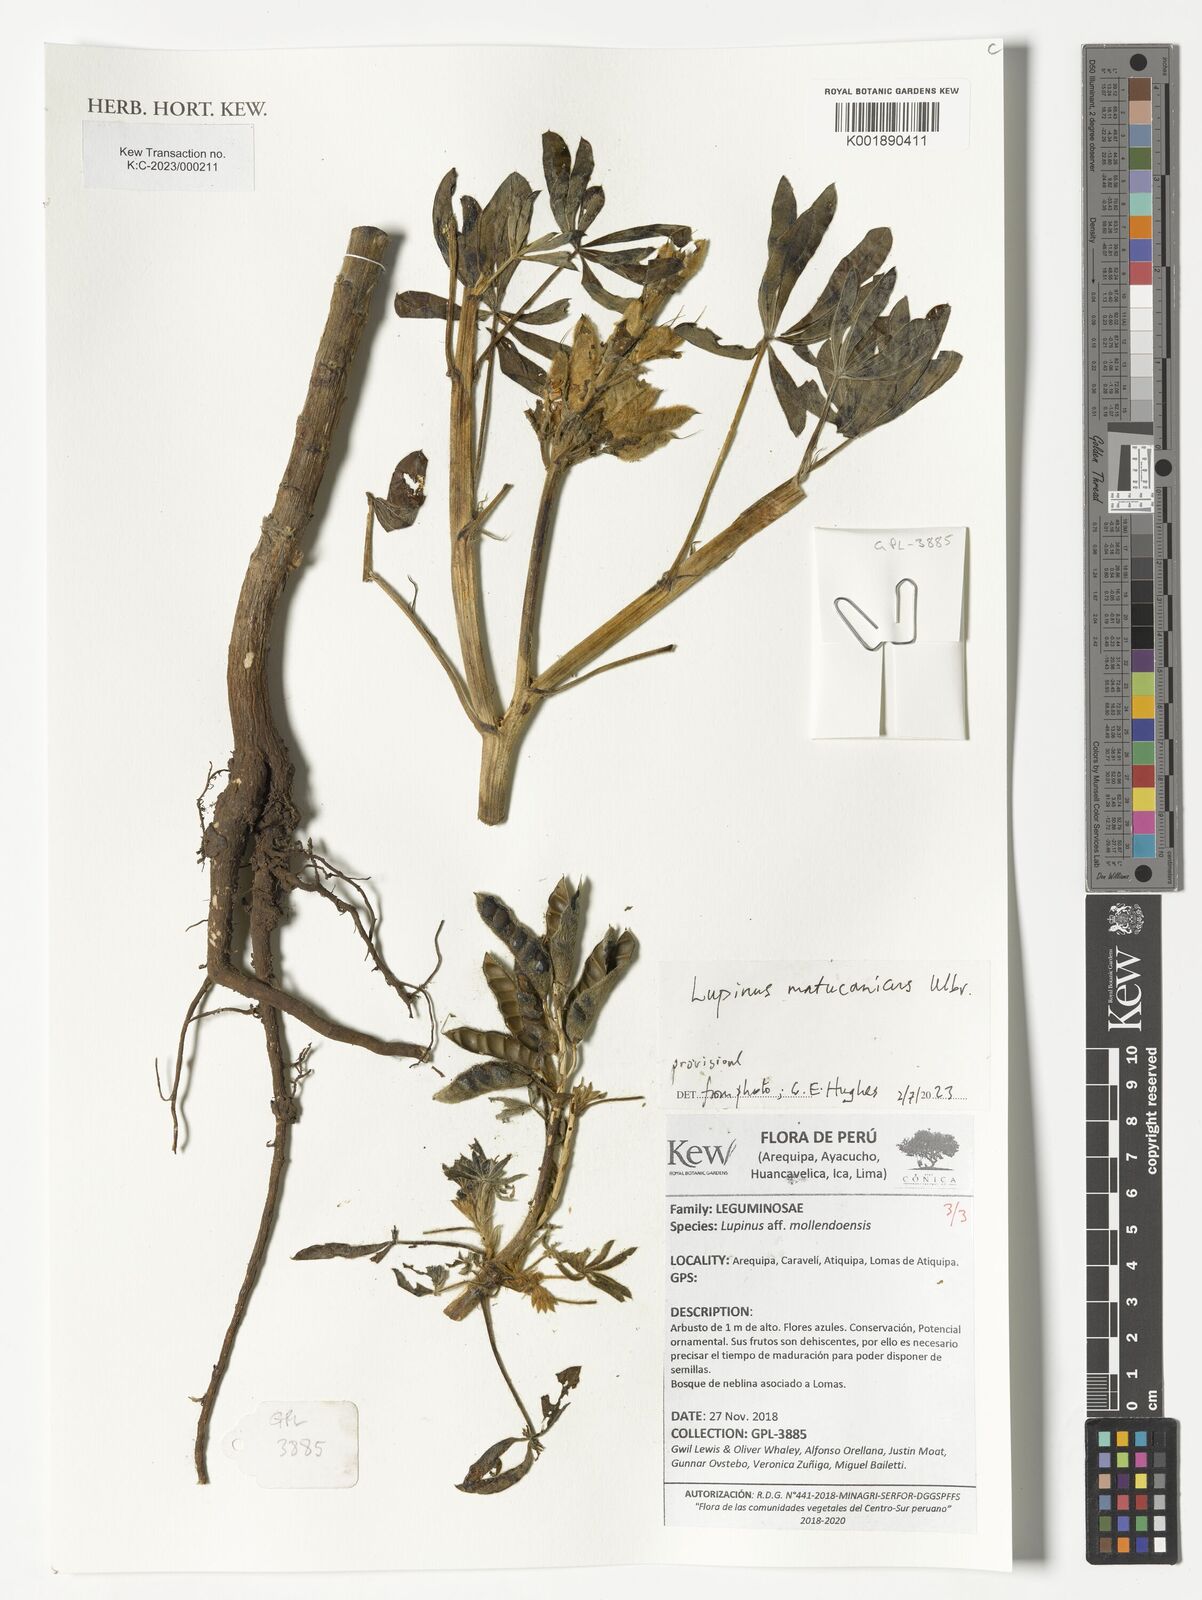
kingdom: Plantae
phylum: Tracheophyta
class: Magnoliopsida
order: Fabales
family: Fabaceae
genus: Lupinus
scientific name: Lupinus matucanicus
